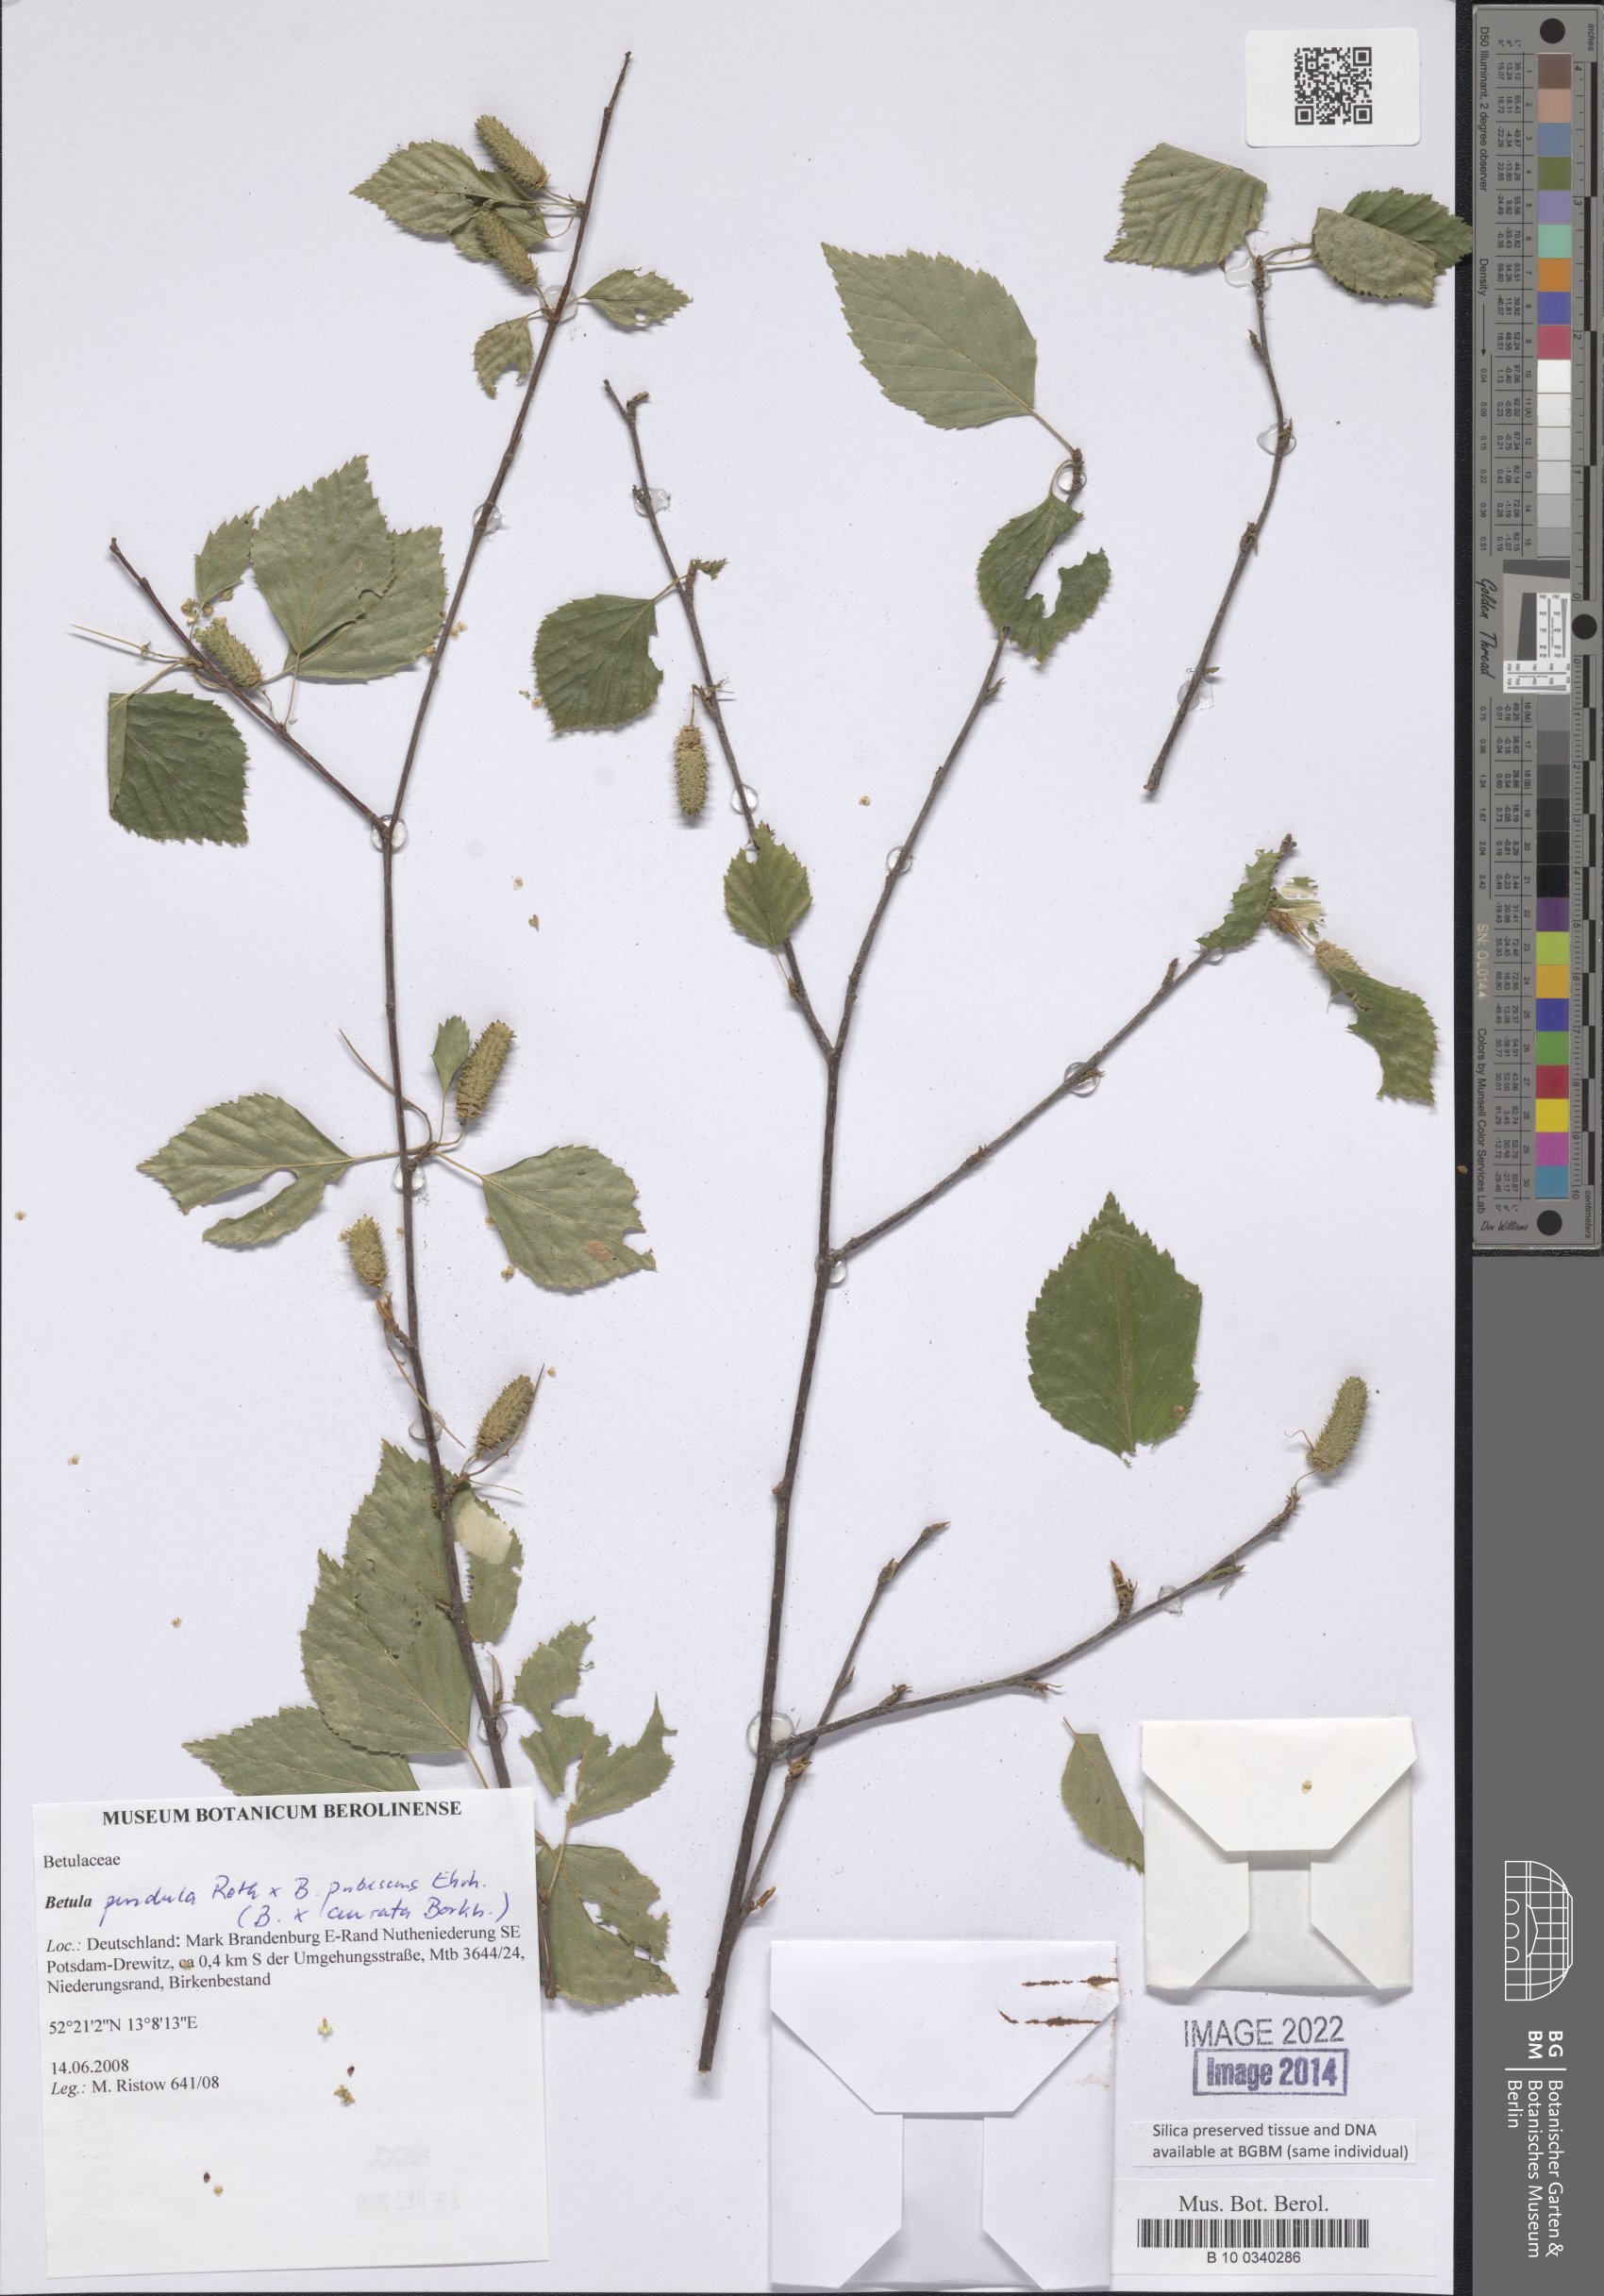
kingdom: Plantae
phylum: Tracheophyta
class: Magnoliopsida
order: Fagales
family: Betulaceae
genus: Betula
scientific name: Betula aurata
